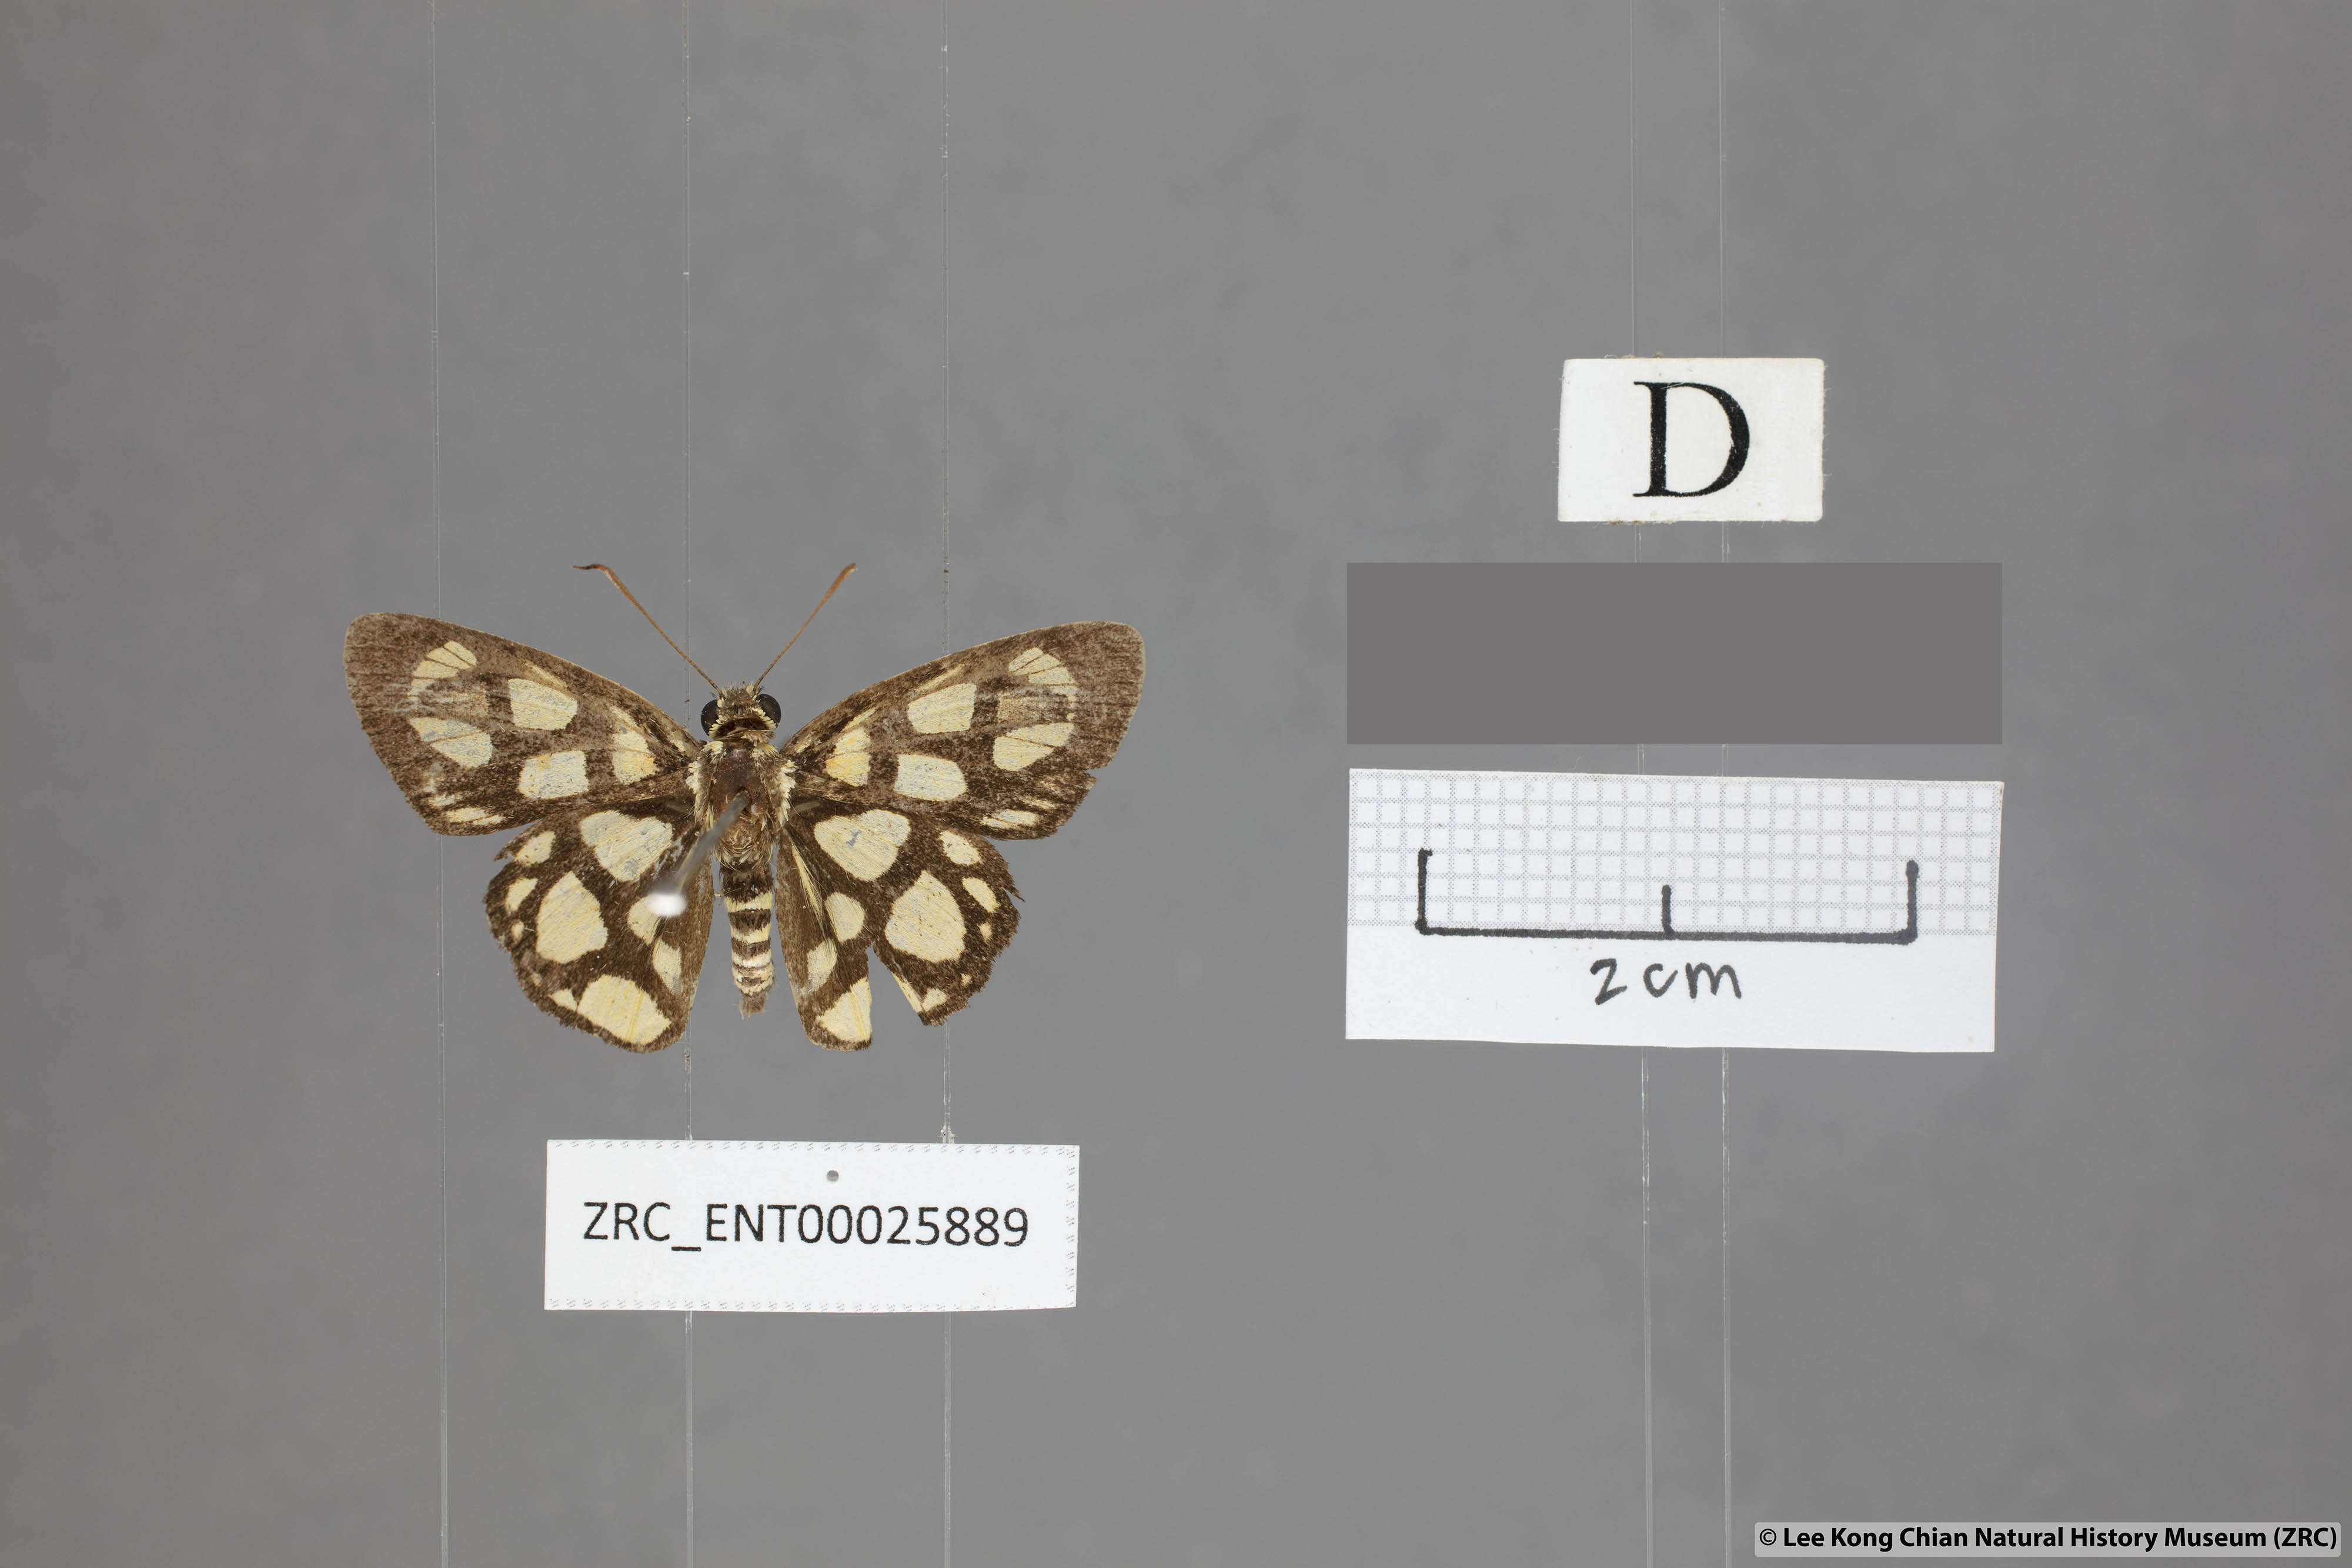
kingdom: Animalia
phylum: Arthropoda
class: Insecta
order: Lepidoptera
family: Hesperiidae
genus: Odina
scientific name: Odina hieroglyphica
